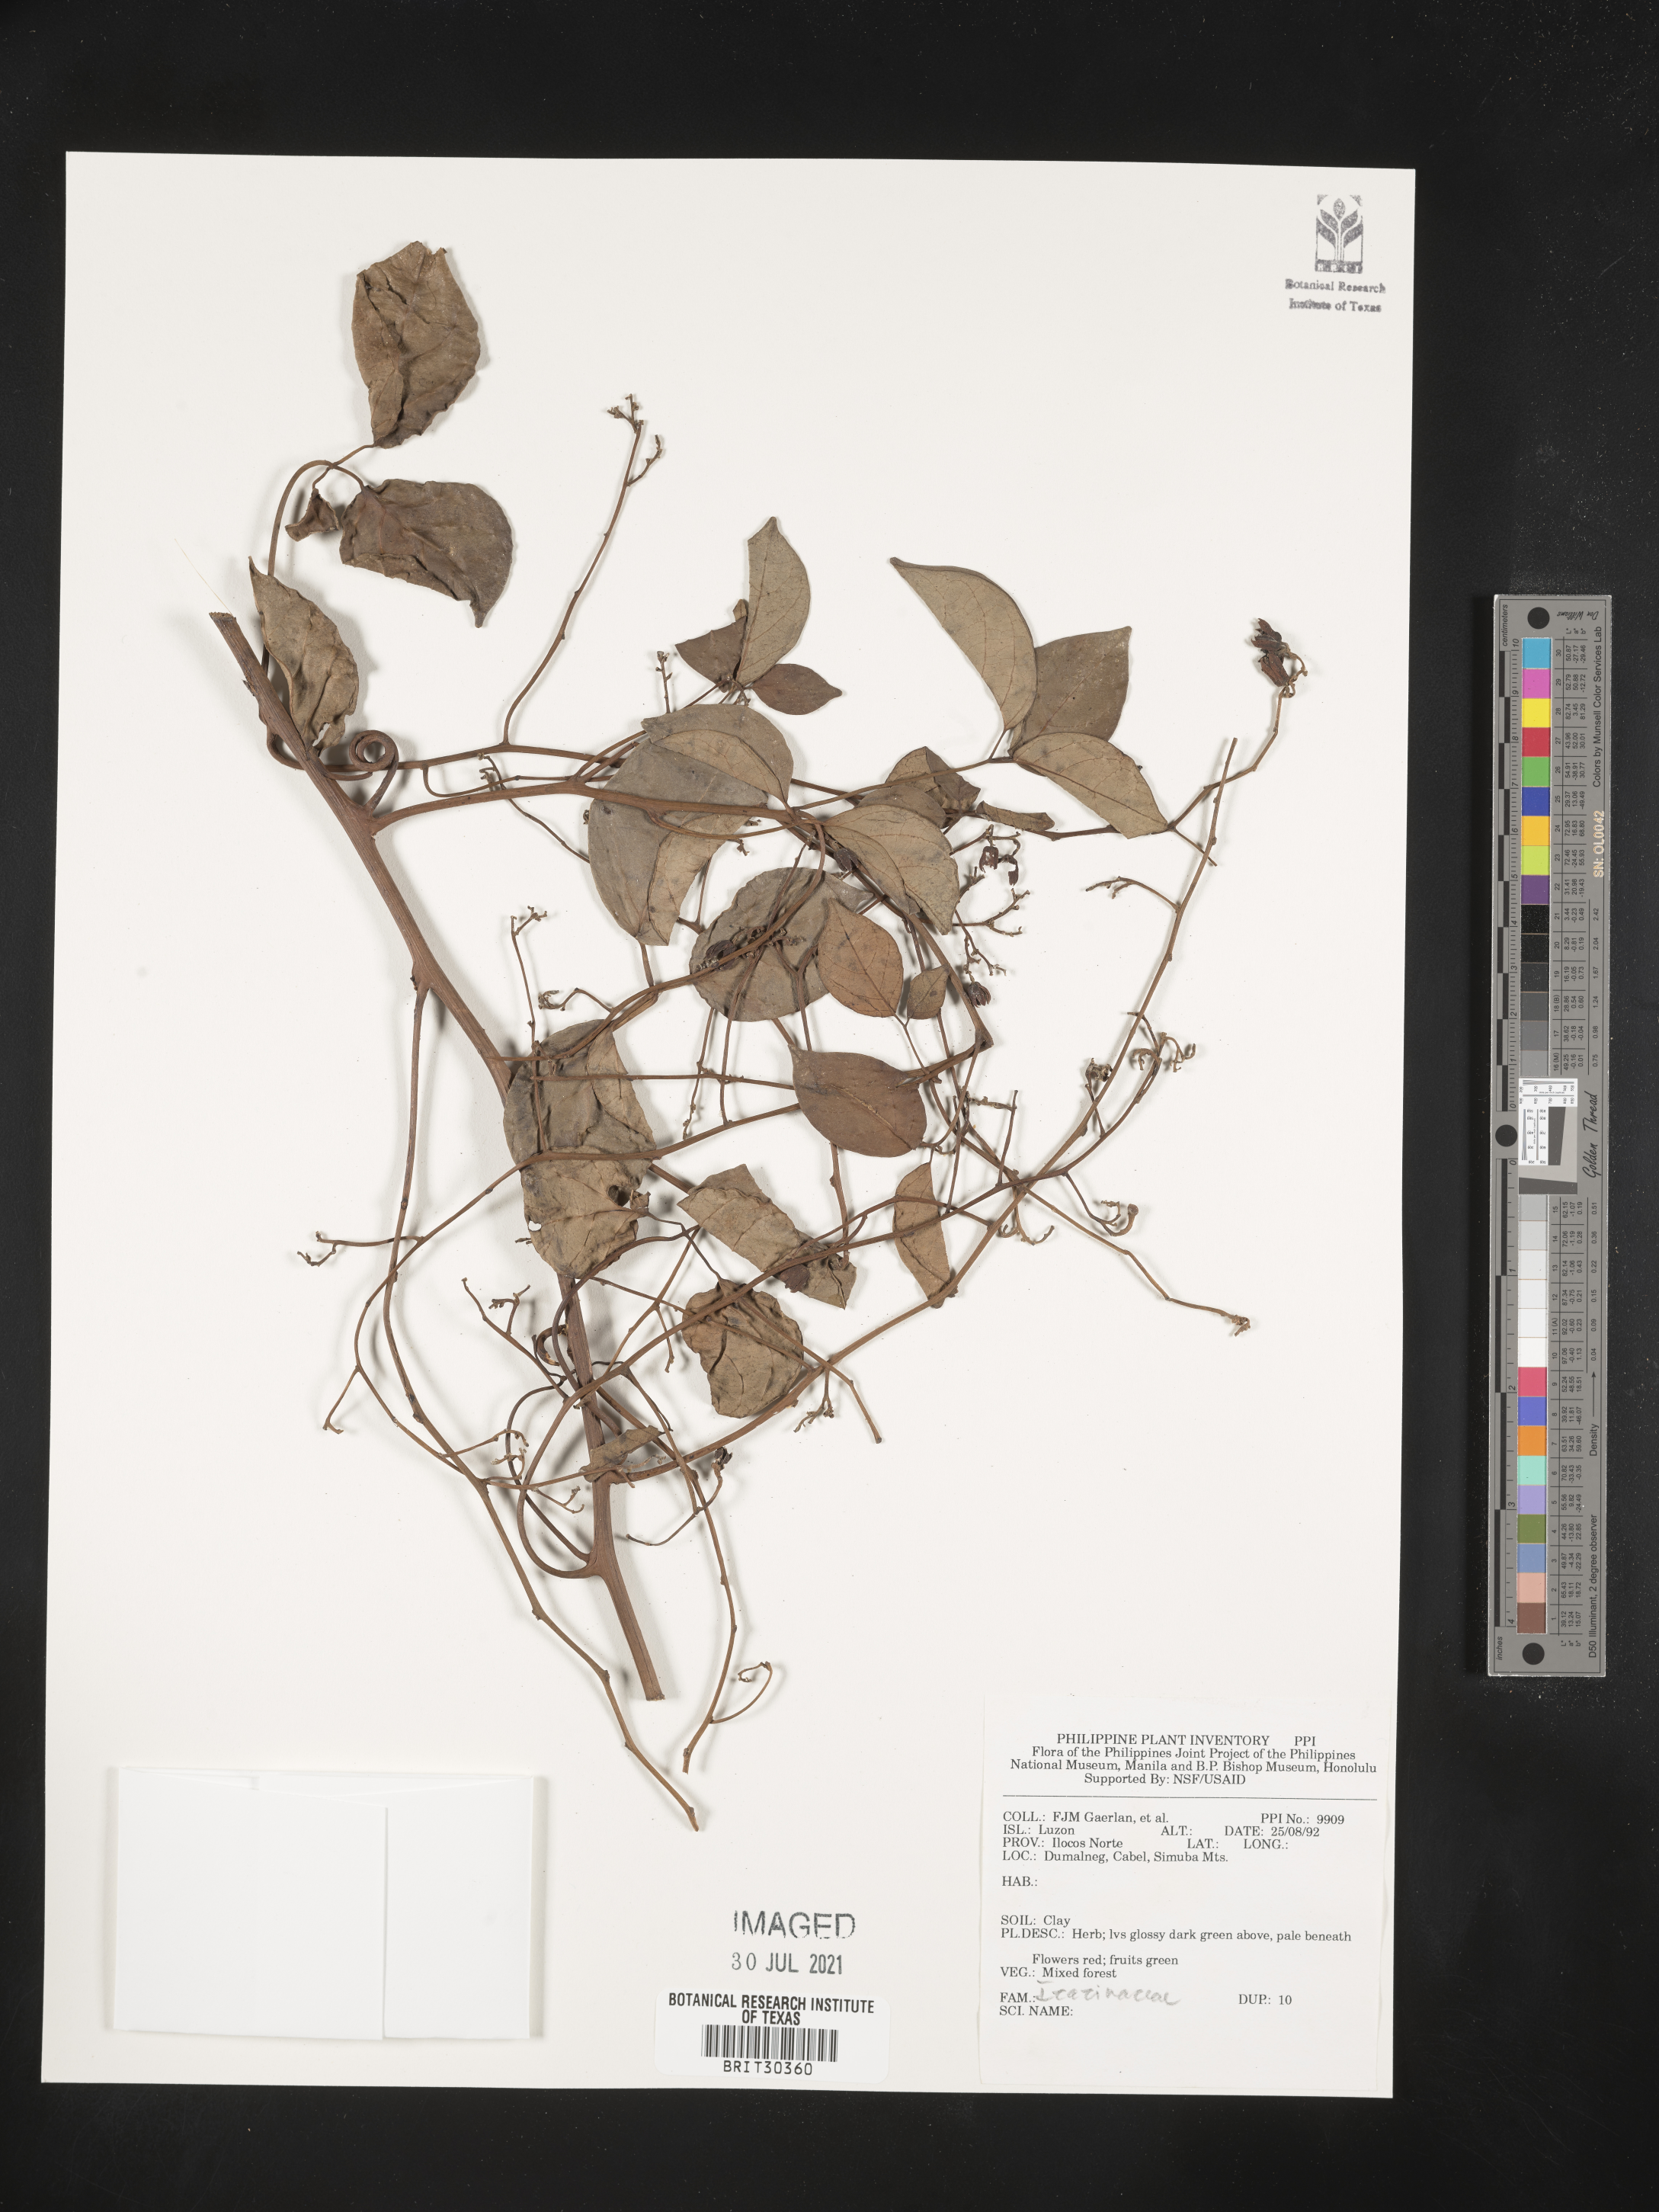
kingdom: Plantae
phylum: Tracheophyta
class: Magnoliopsida
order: Icacinales
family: Icacinaceae
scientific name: Icacinaceae
